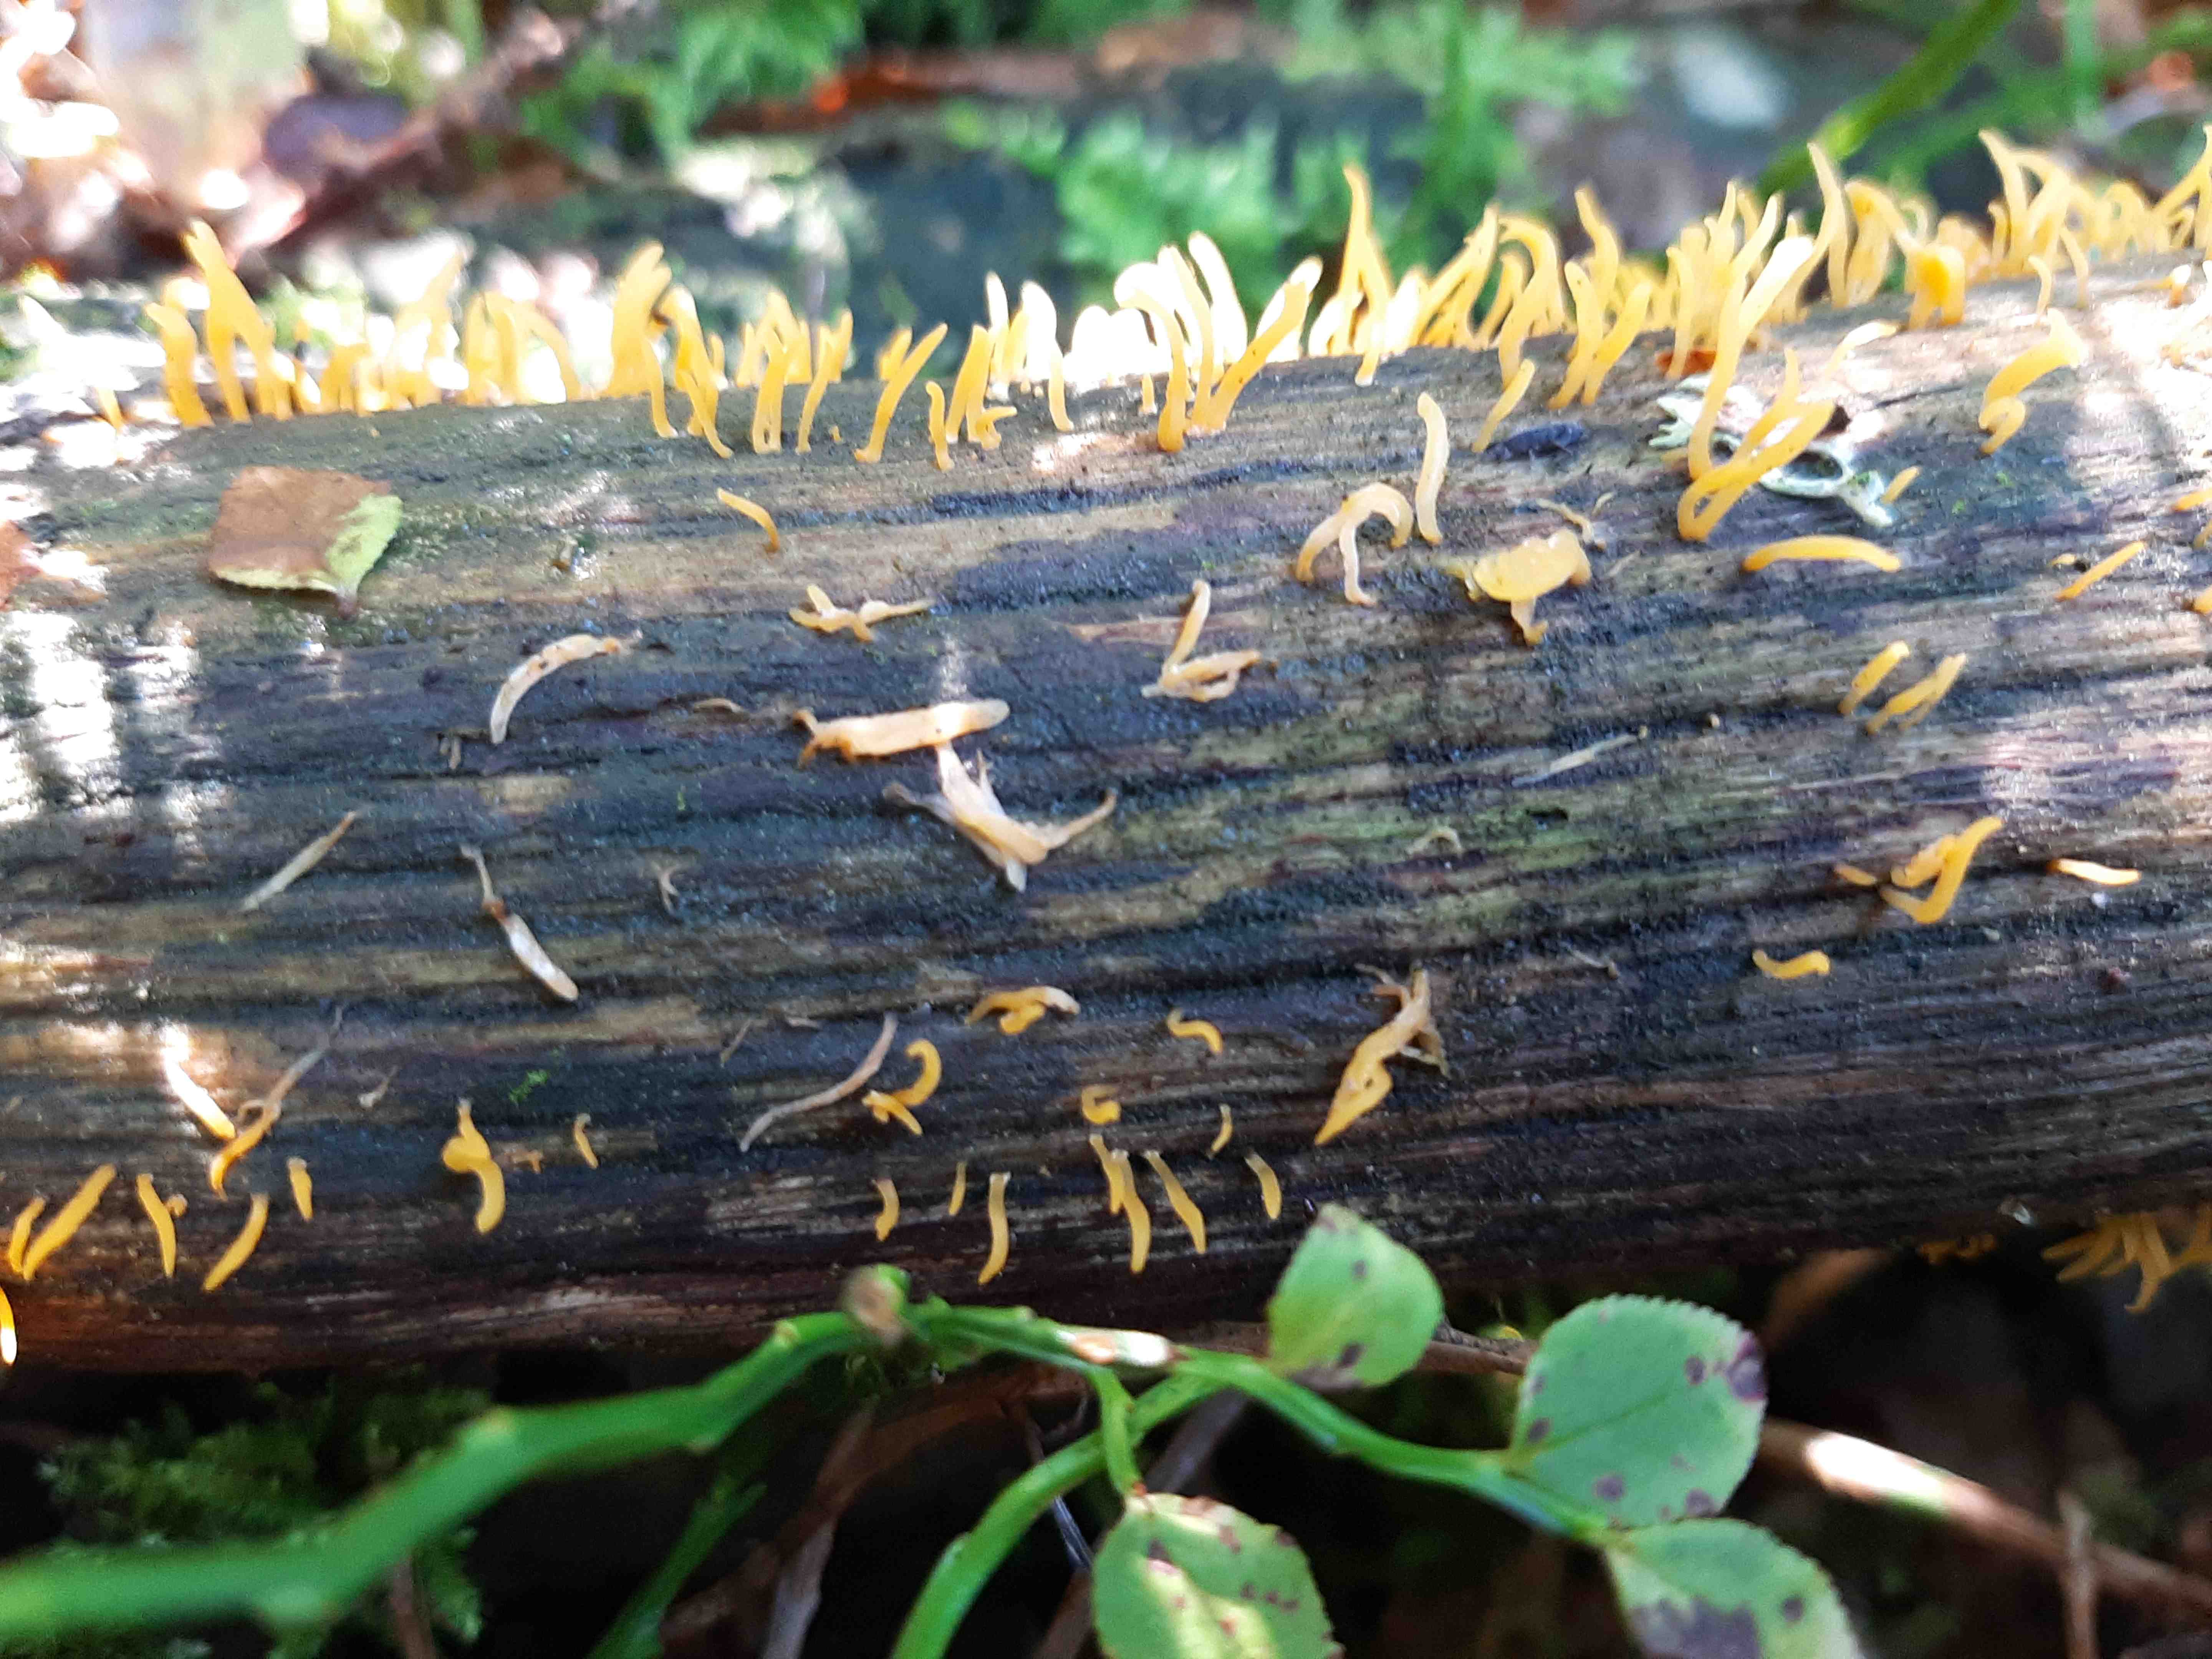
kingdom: Fungi
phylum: Basidiomycota
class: Dacrymycetes
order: Dacrymycetales
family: Dacrymycetaceae
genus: Calocera
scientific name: Calocera cornea
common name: liden guldgaffel
